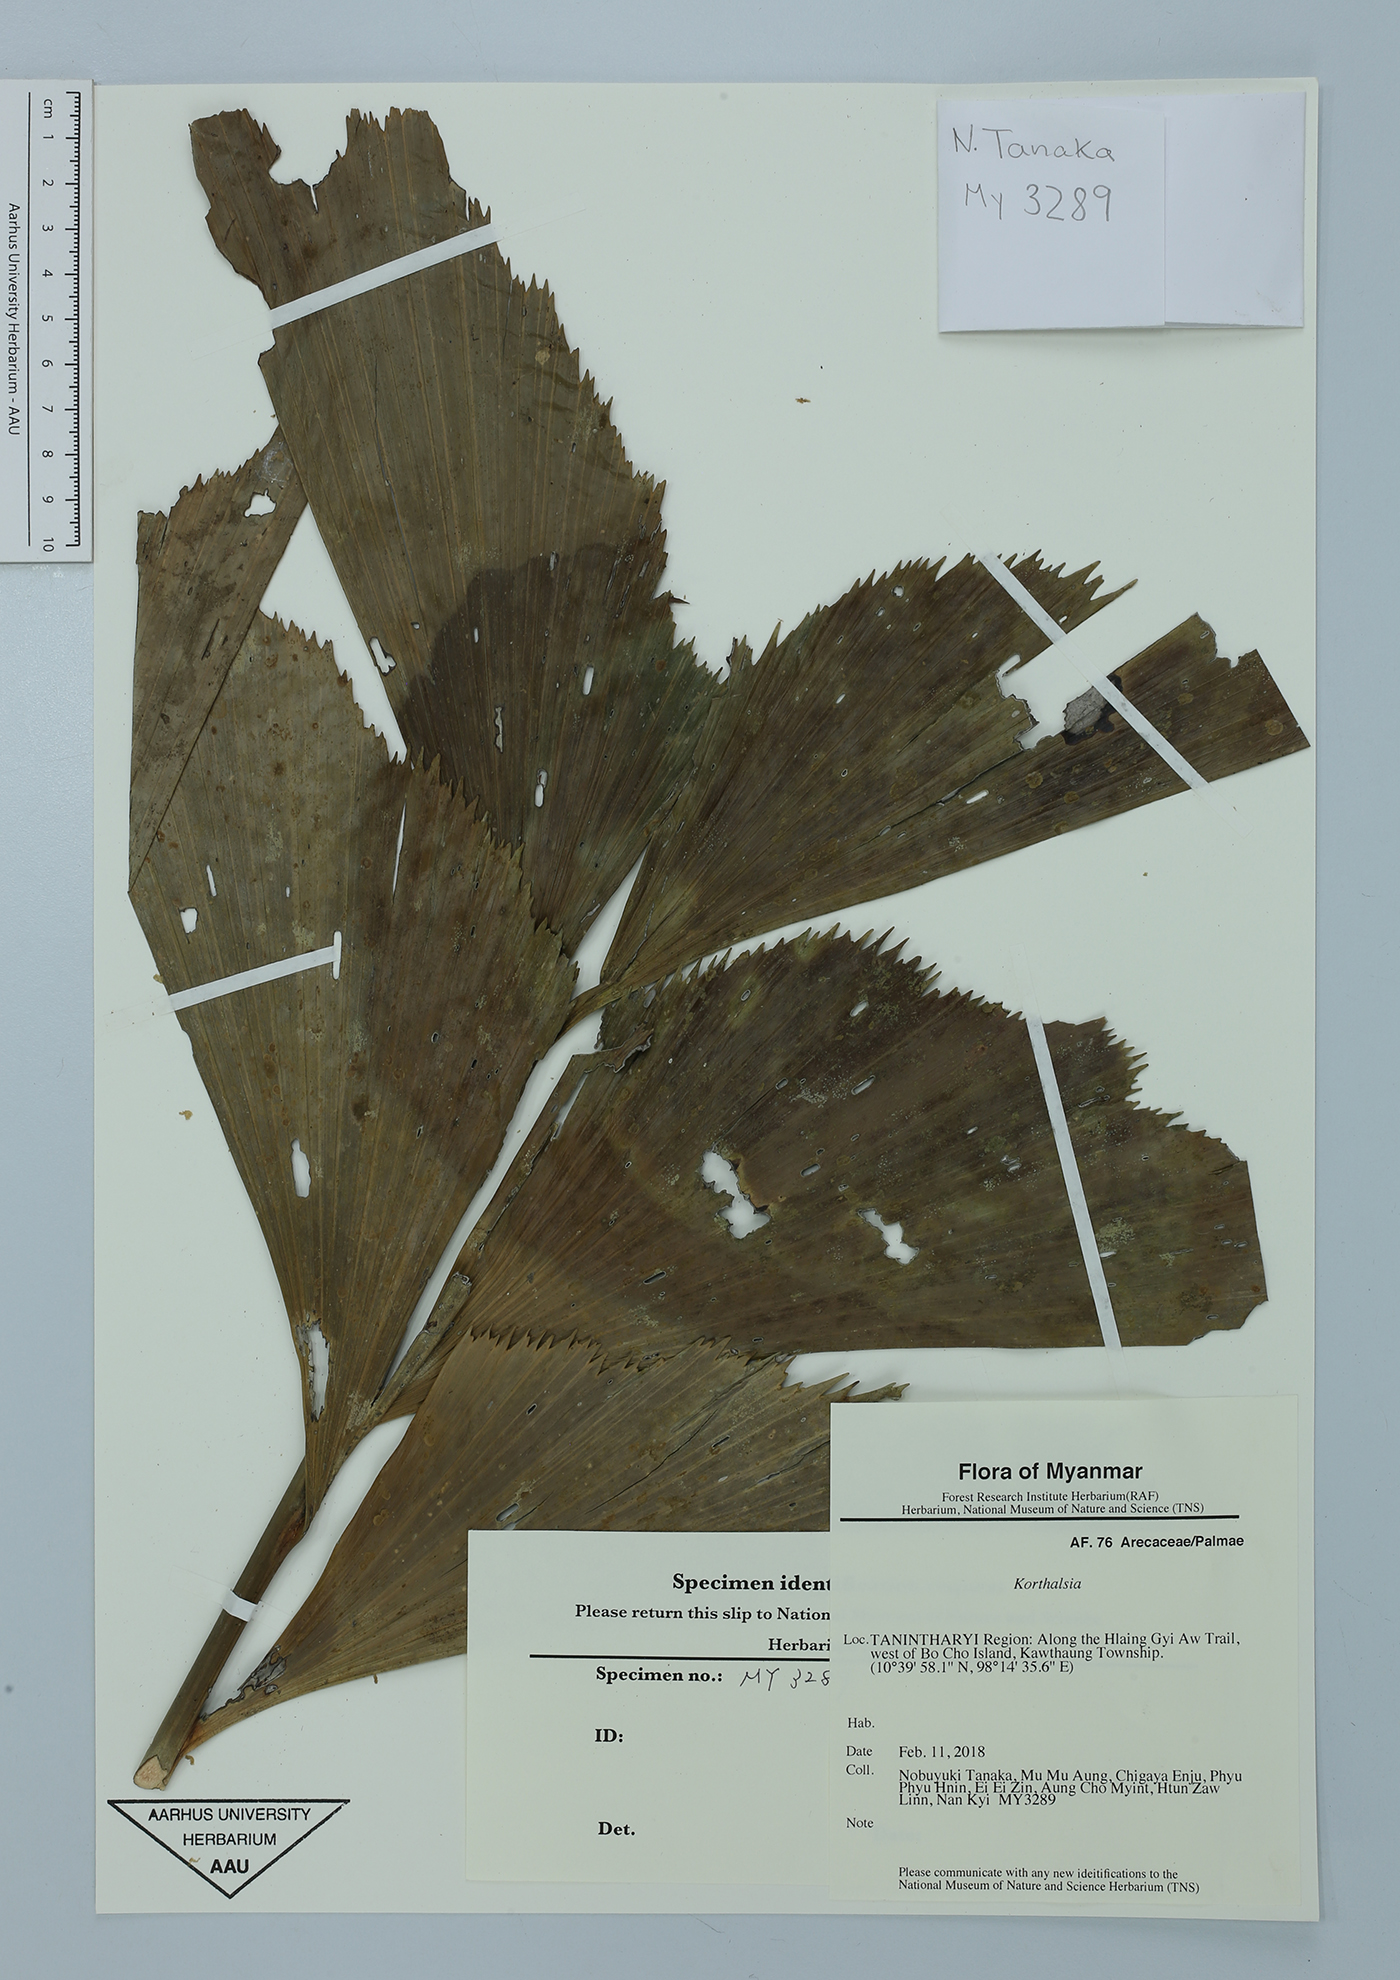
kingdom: Plantae
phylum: Tracheophyta
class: Liliopsida
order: Arecales
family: Arecaceae
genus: Korthalsia
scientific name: Korthalsia
